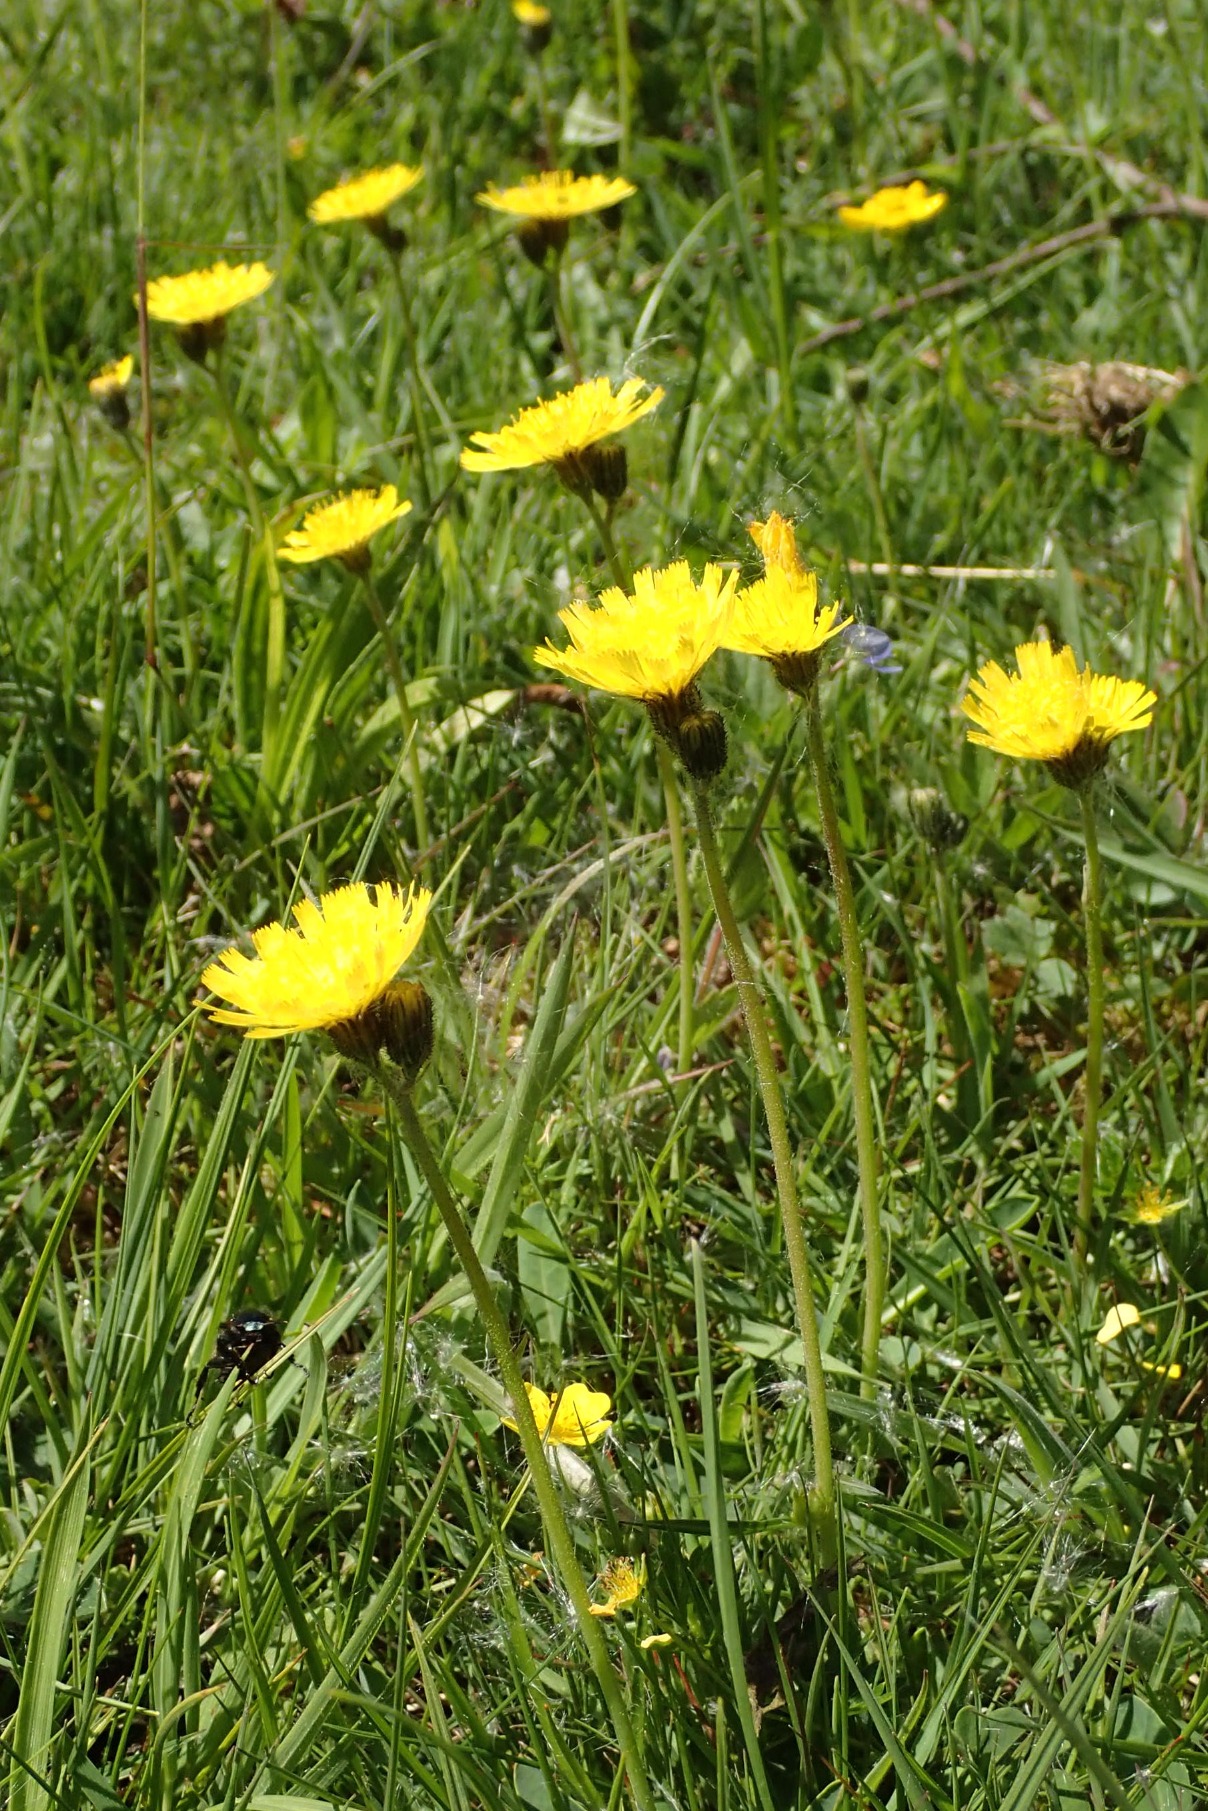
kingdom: Plantae
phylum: Tracheophyta
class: Magnoliopsida
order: Asterales
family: Asteraceae
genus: Pilosella
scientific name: Pilosella lactucella
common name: Lancetbladet høgeurt
